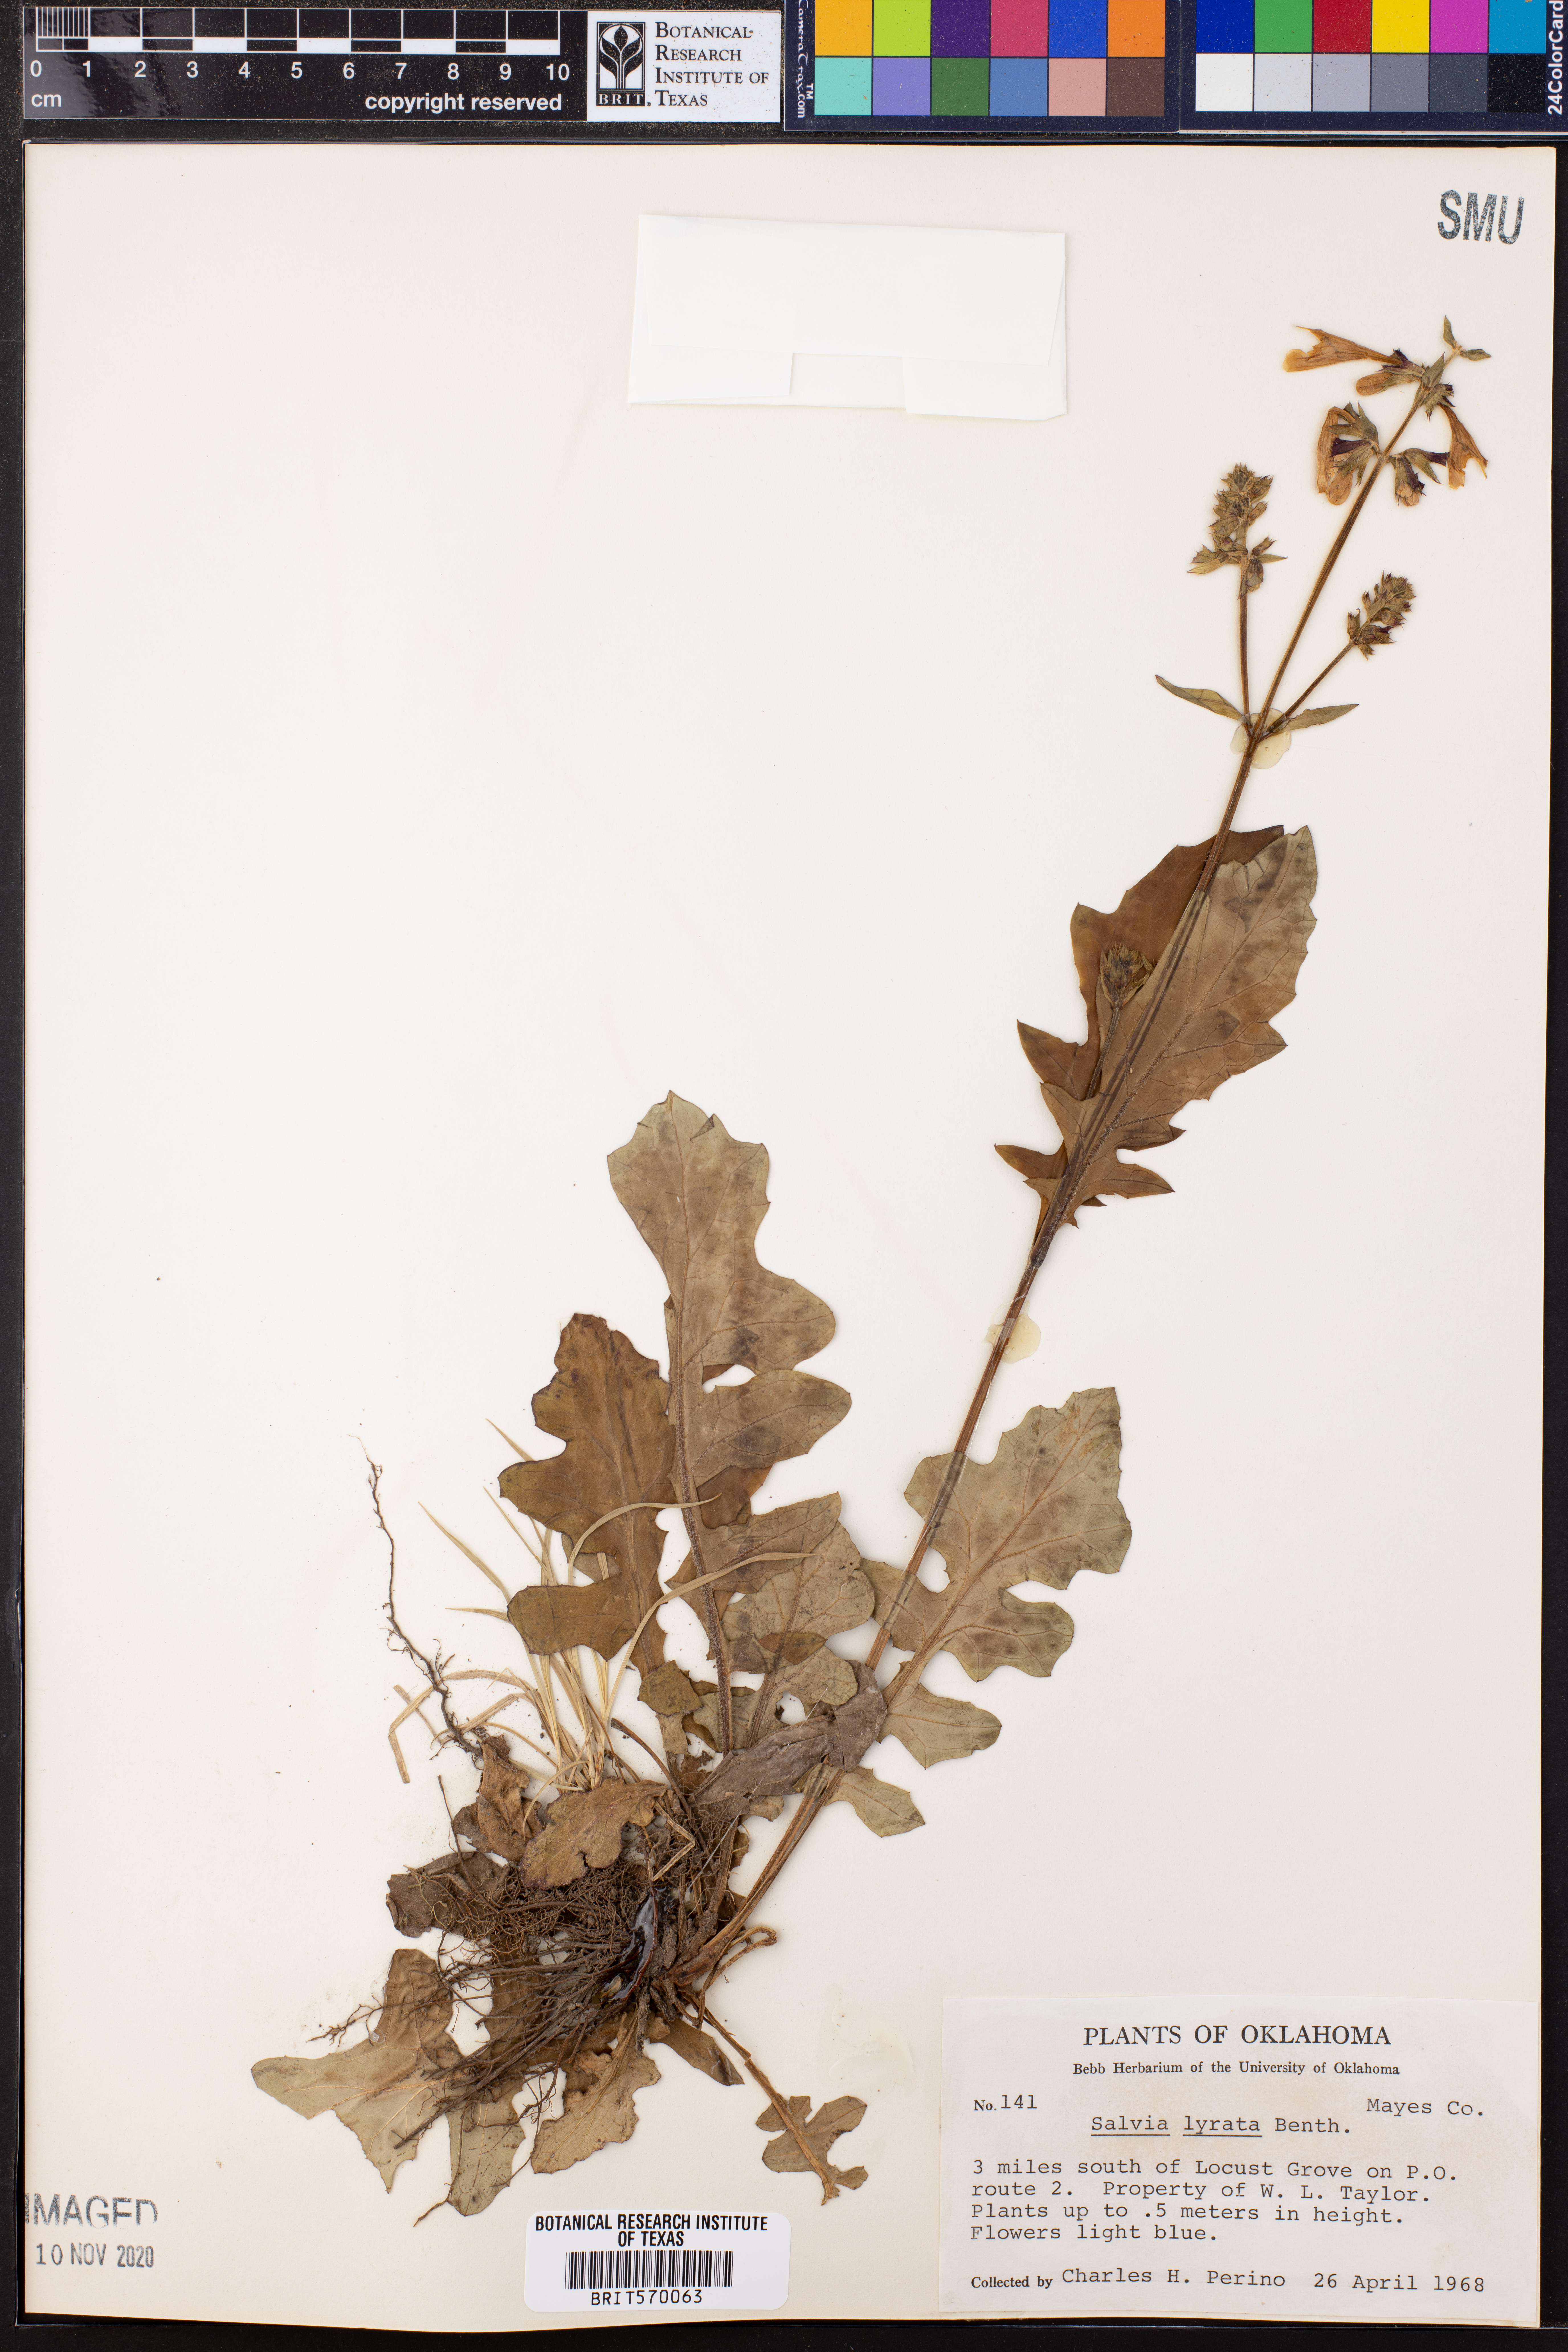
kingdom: Plantae
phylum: Tracheophyta
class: Magnoliopsida
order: Lamiales
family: Lamiaceae
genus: Salvia
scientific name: Salvia lyrata
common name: Cancerweed
